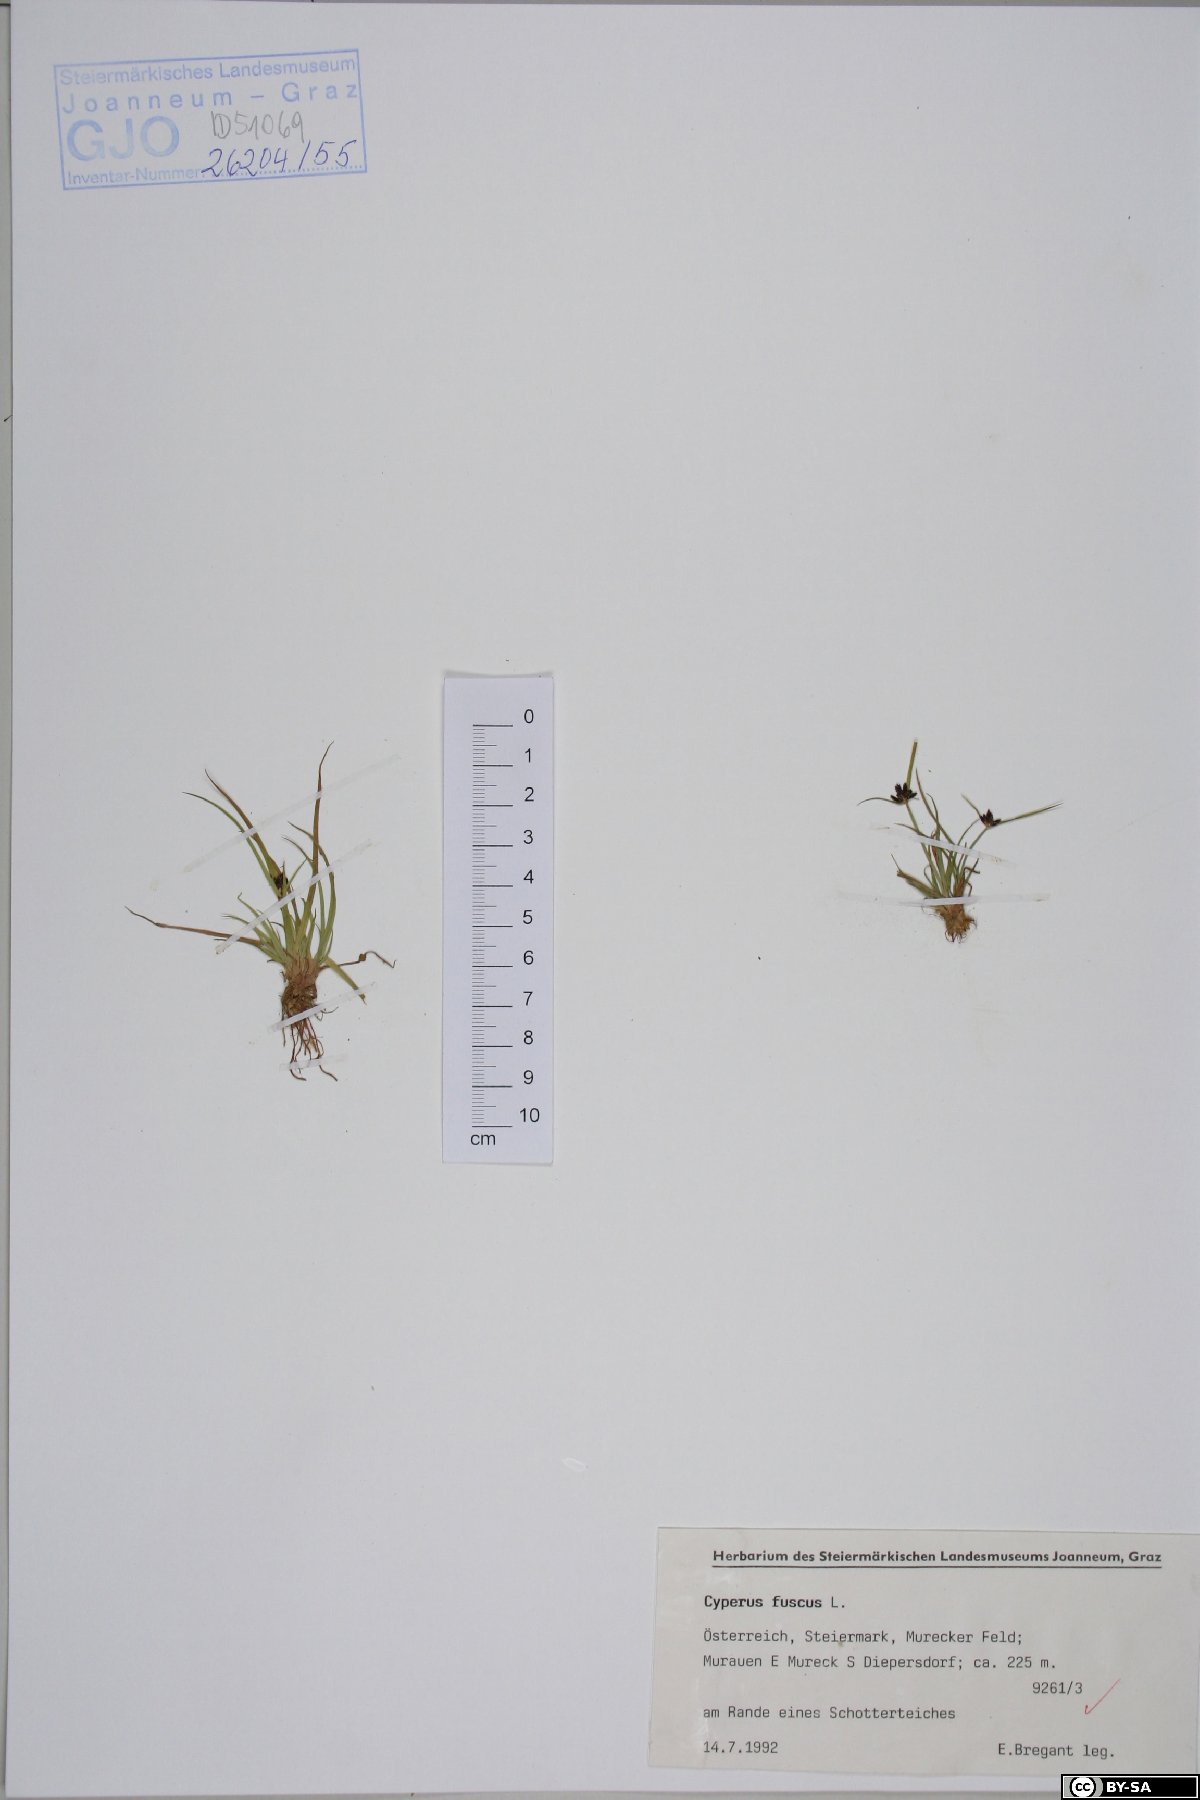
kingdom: Plantae
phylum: Tracheophyta
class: Liliopsida
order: Poales
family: Cyperaceae
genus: Cyperus
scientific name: Cyperus fuscus
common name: Brown galingale
